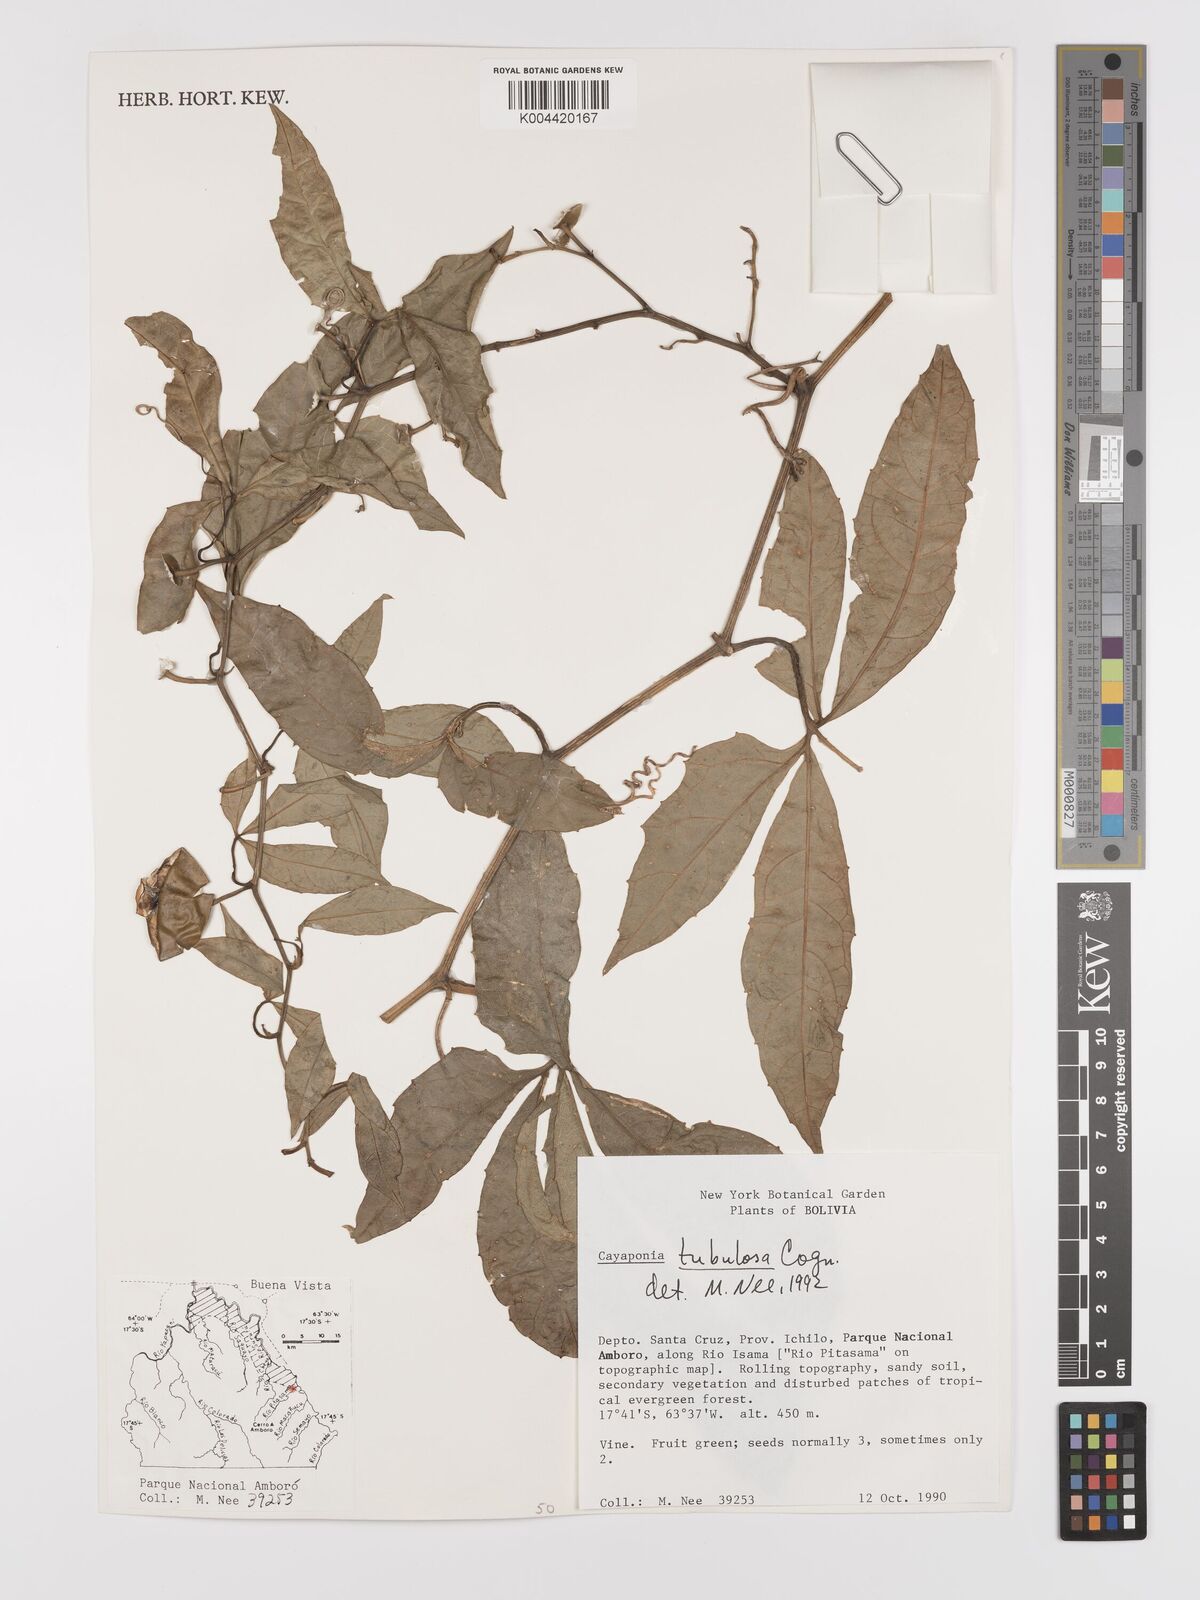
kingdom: Plantae
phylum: Tracheophyta
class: Magnoliopsida
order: Cucurbitales
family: Cucurbitaceae
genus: Cayaponia
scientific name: Cayaponia tubulosa
